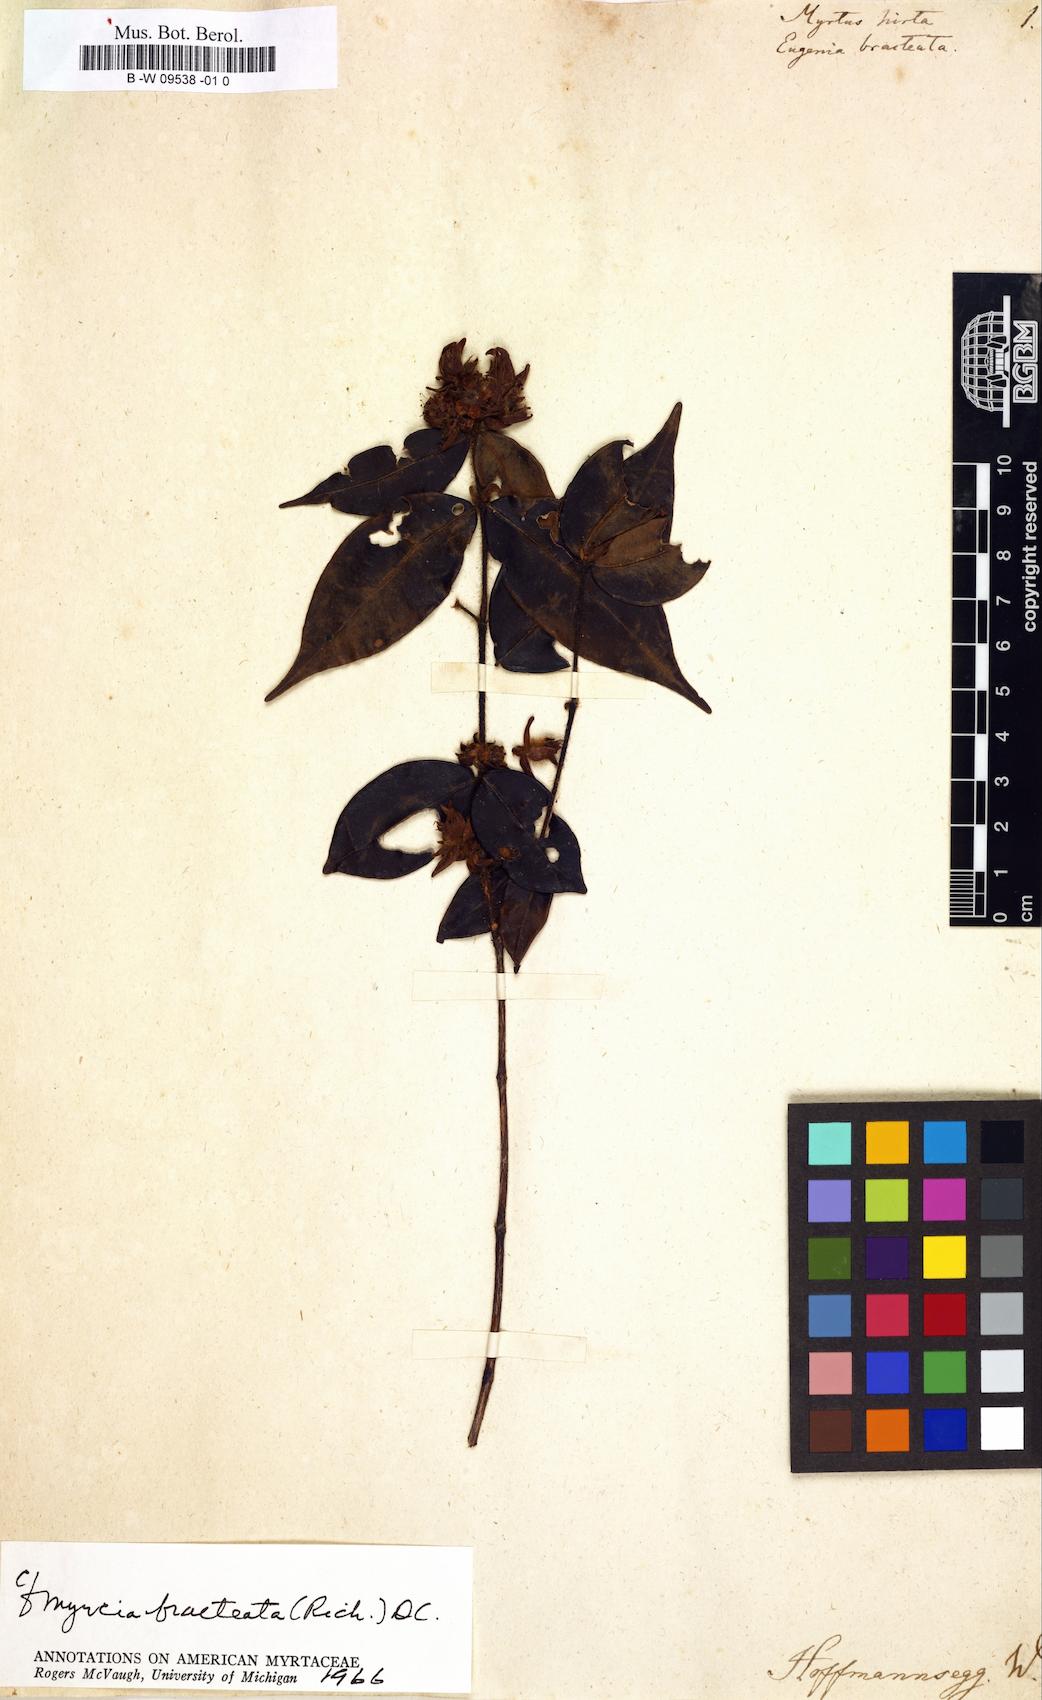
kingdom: Plantae
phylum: Tracheophyta
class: Magnoliopsida
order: Myrtales
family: Myrtaceae
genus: Myrtus
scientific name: Myrtus hirta
